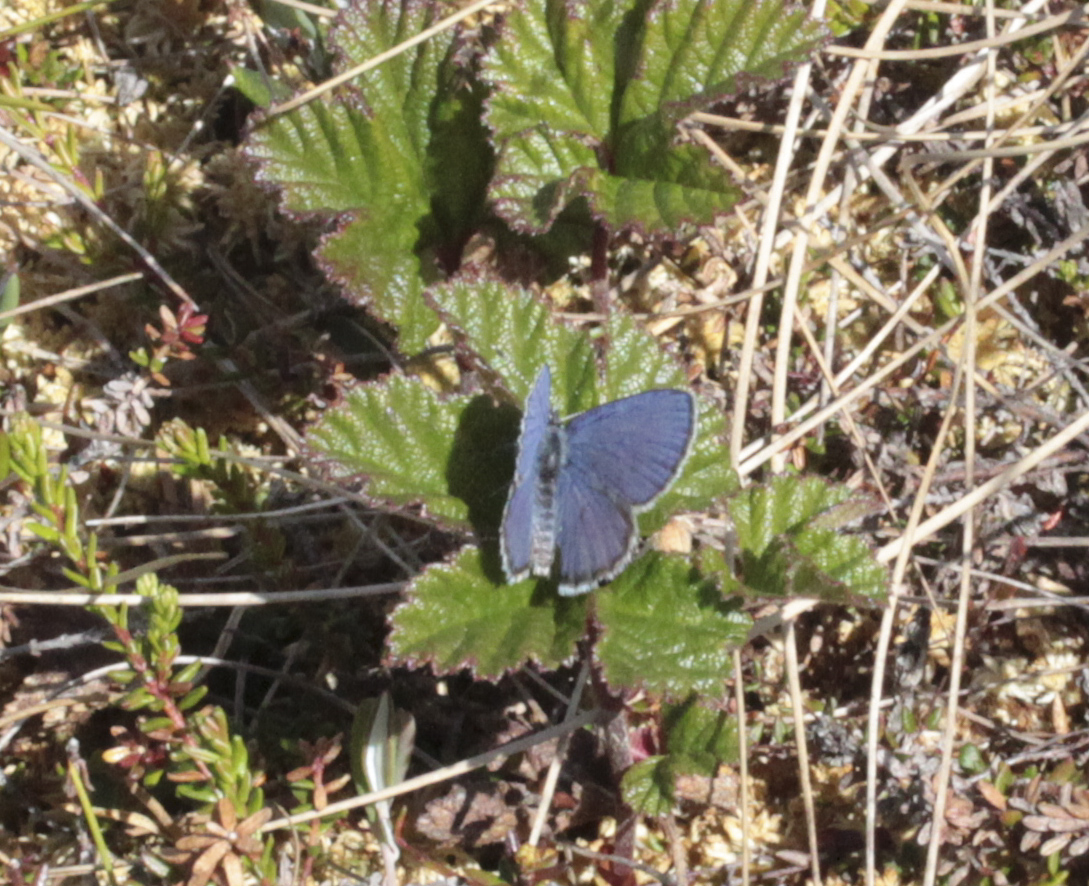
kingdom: Animalia
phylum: Arthropoda
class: Insecta
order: Lepidoptera
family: Lycaenidae
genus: Lycaeides
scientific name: Lycaeides idas
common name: Northern blue
